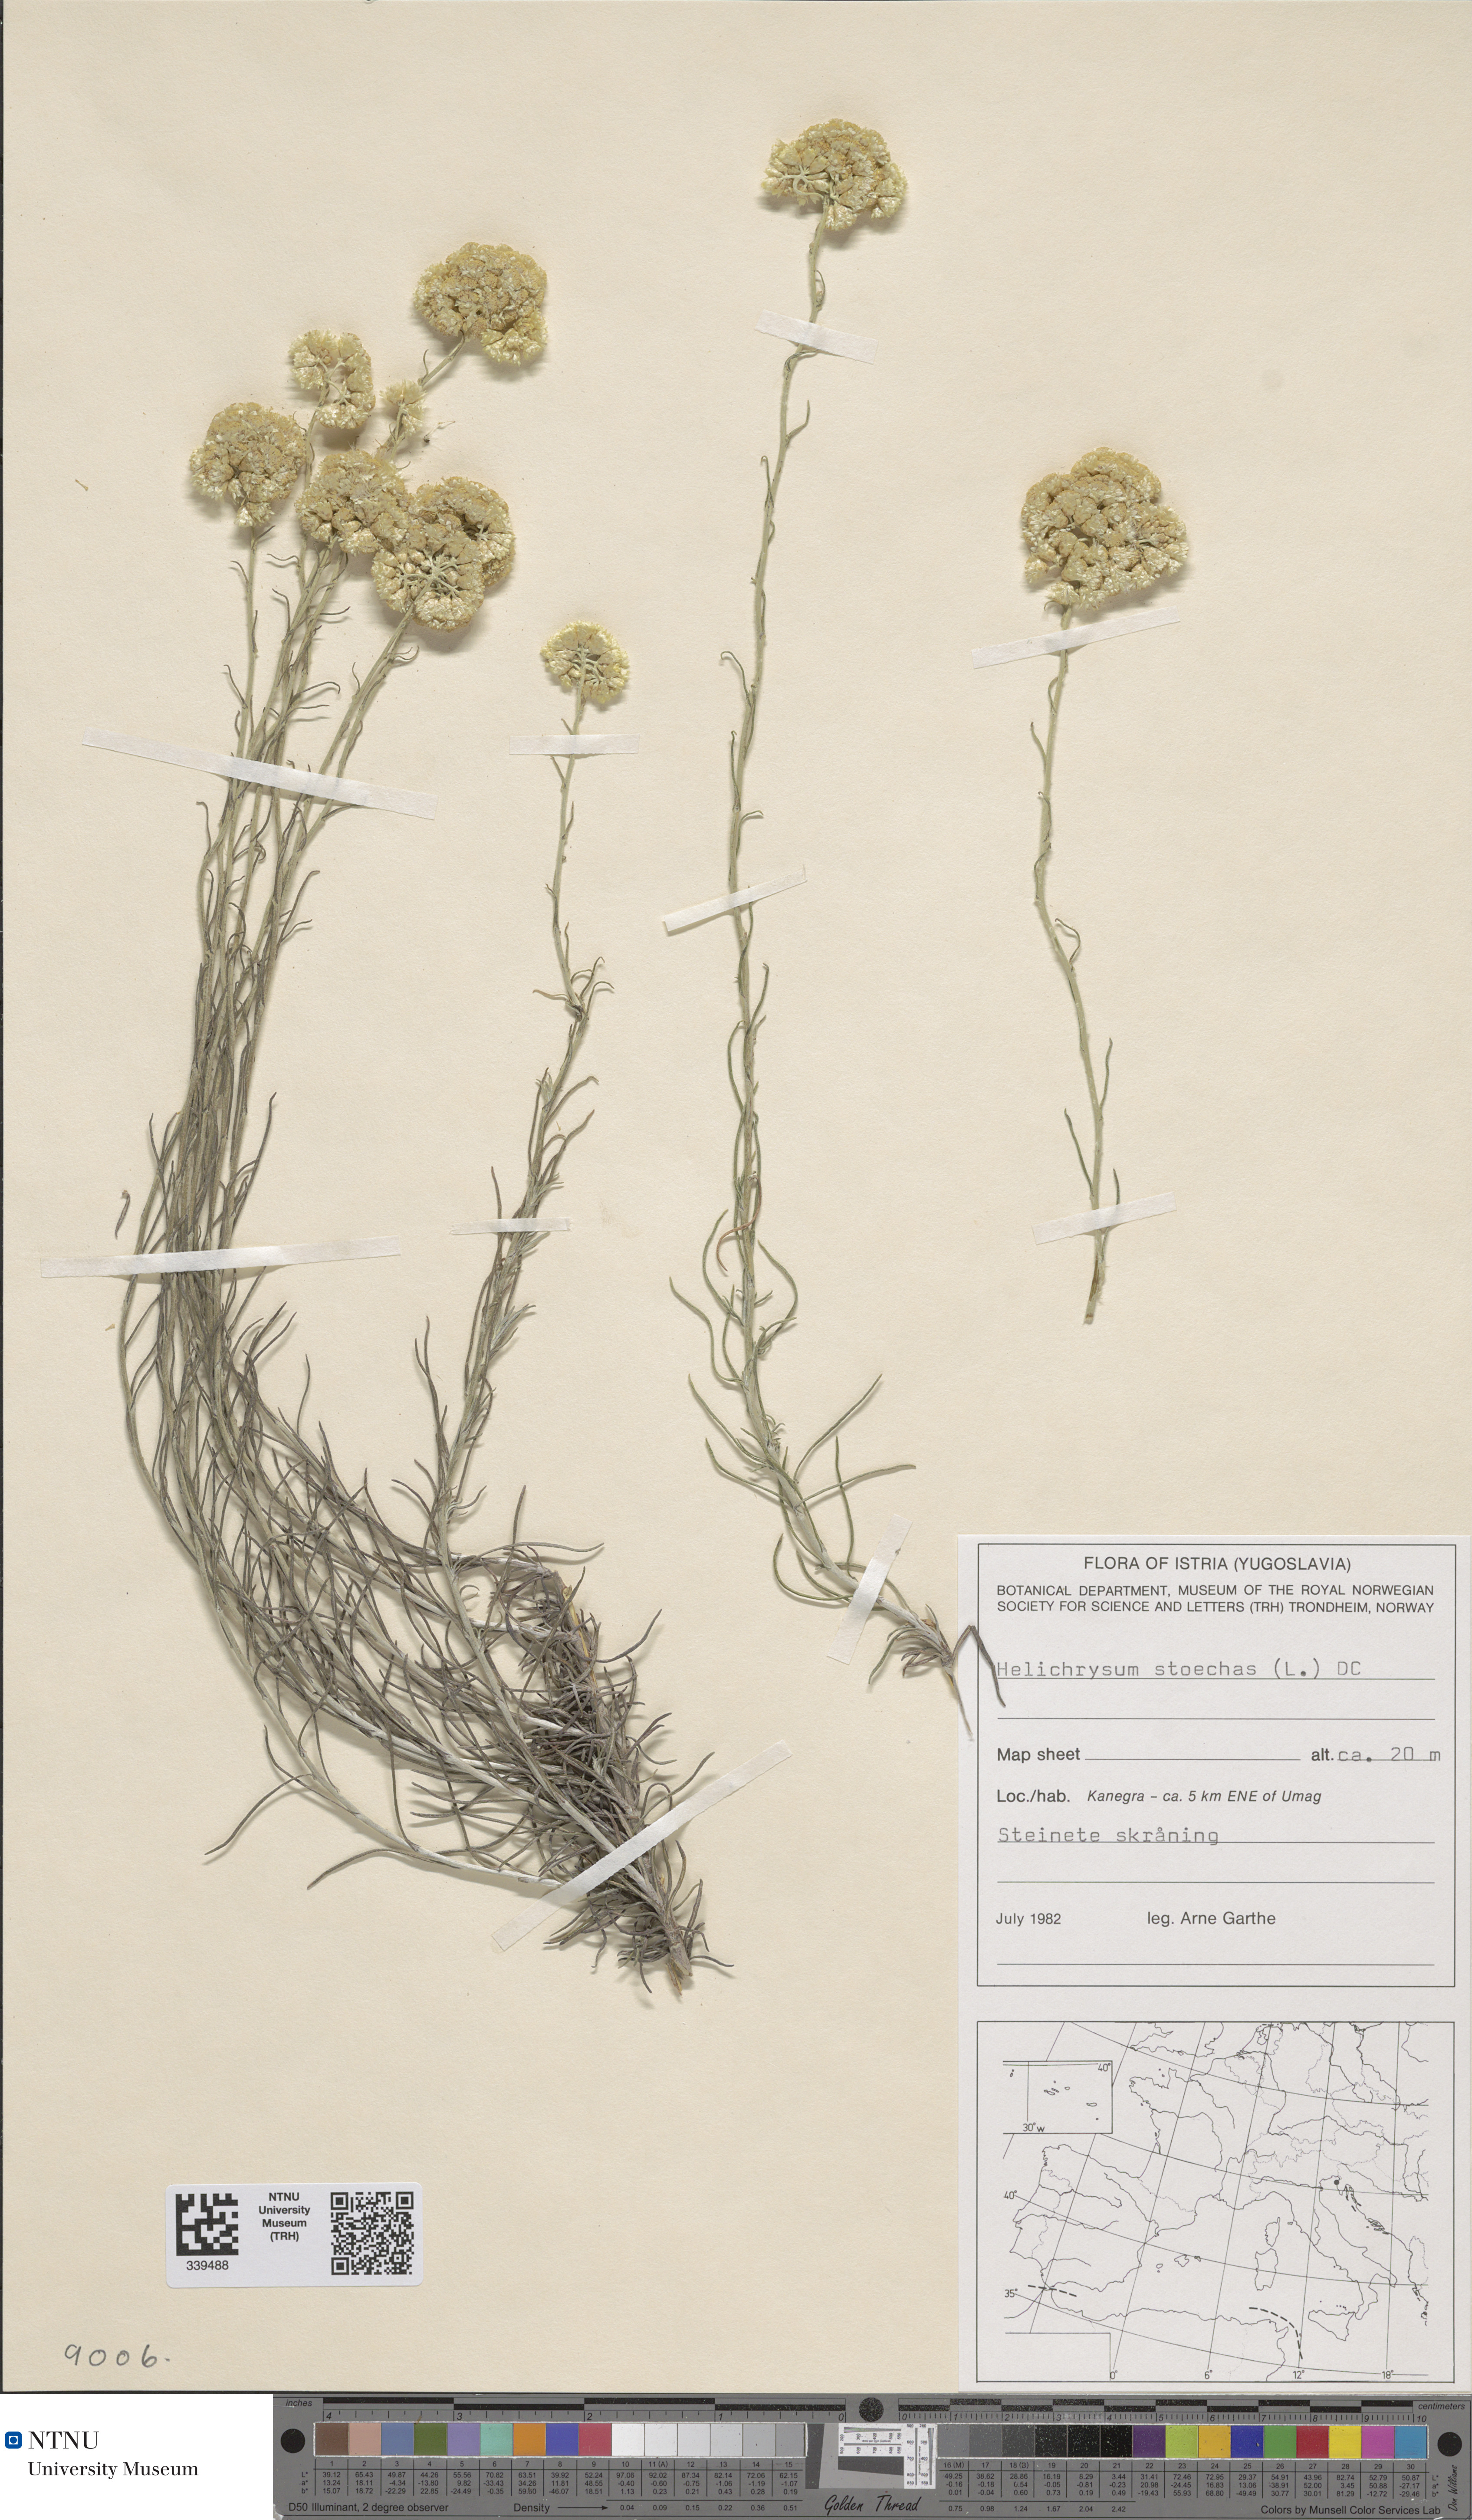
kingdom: Plantae
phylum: Tracheophyta
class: Magnoliopsida
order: Asterales
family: Asteraceae
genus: Helichrysum
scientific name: Helichrysum stoechas
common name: Goldilocks
